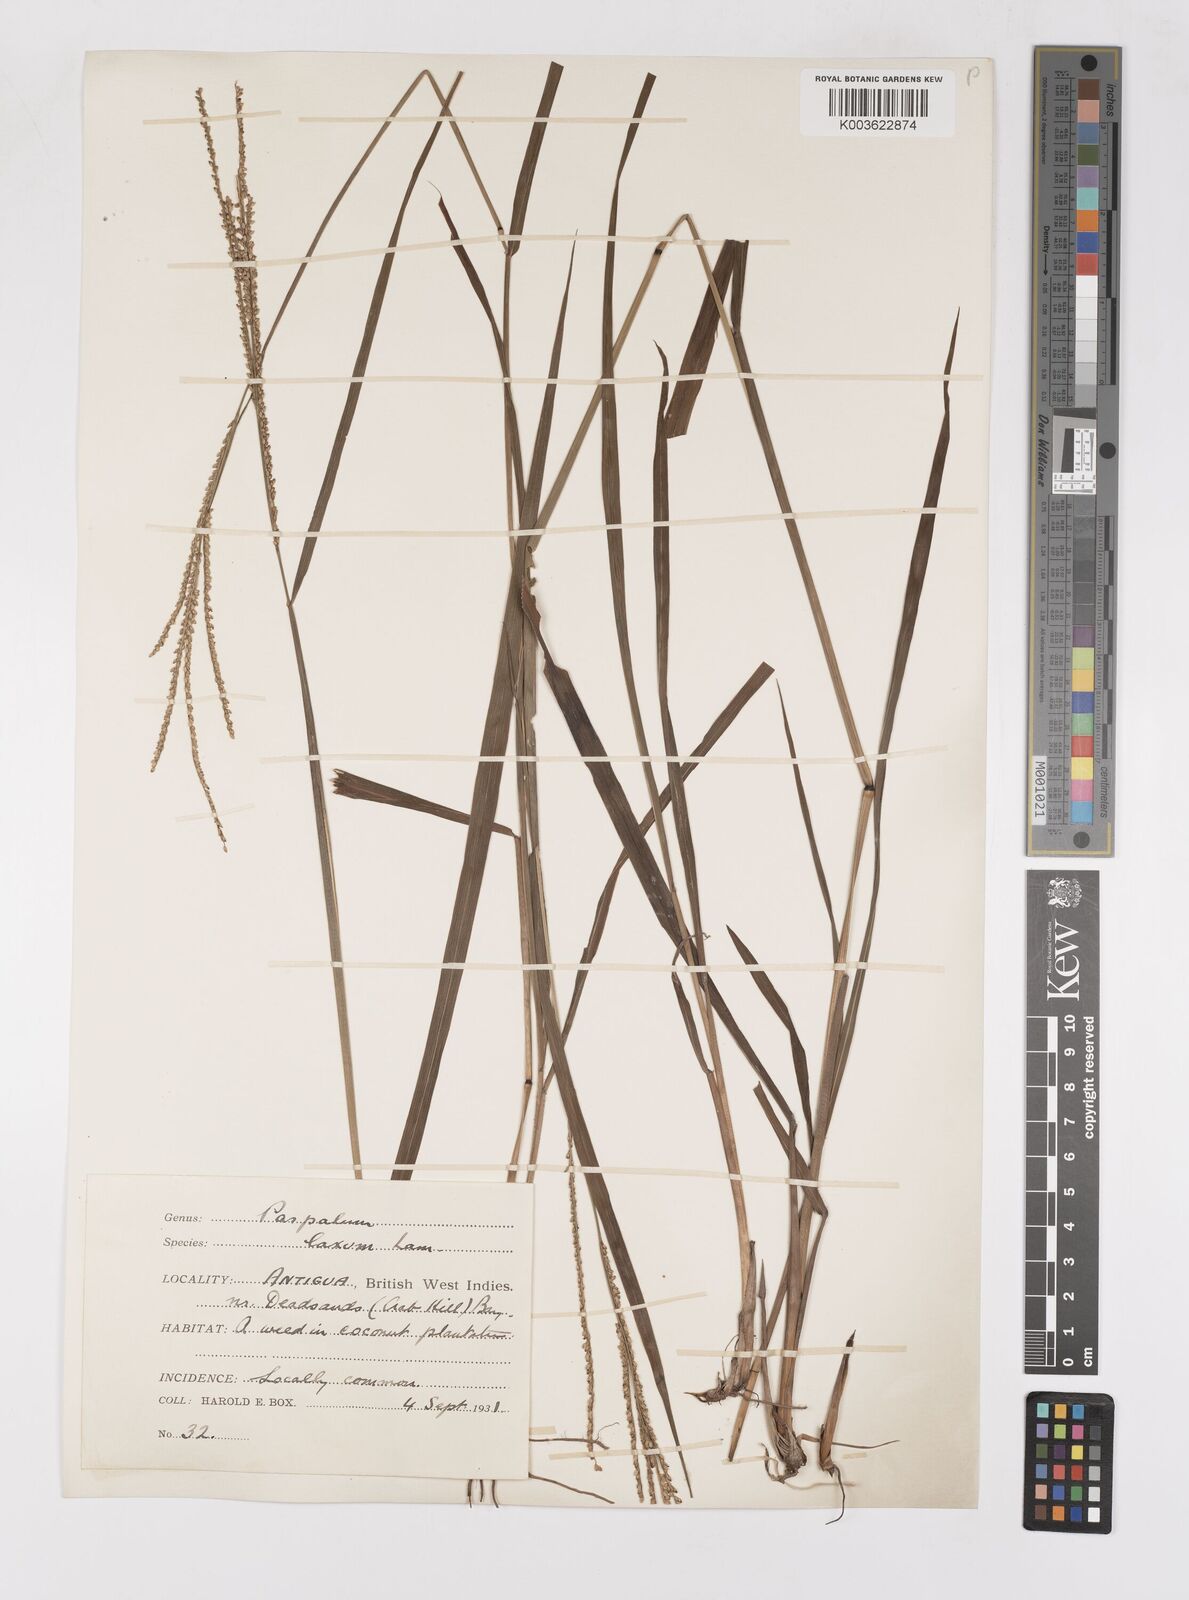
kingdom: Plantae
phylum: Tracheophyta
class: Liliopsida
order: Poales
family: Poaceae
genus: Paspalum
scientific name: Paspalum laxum
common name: Coconut paspalum
